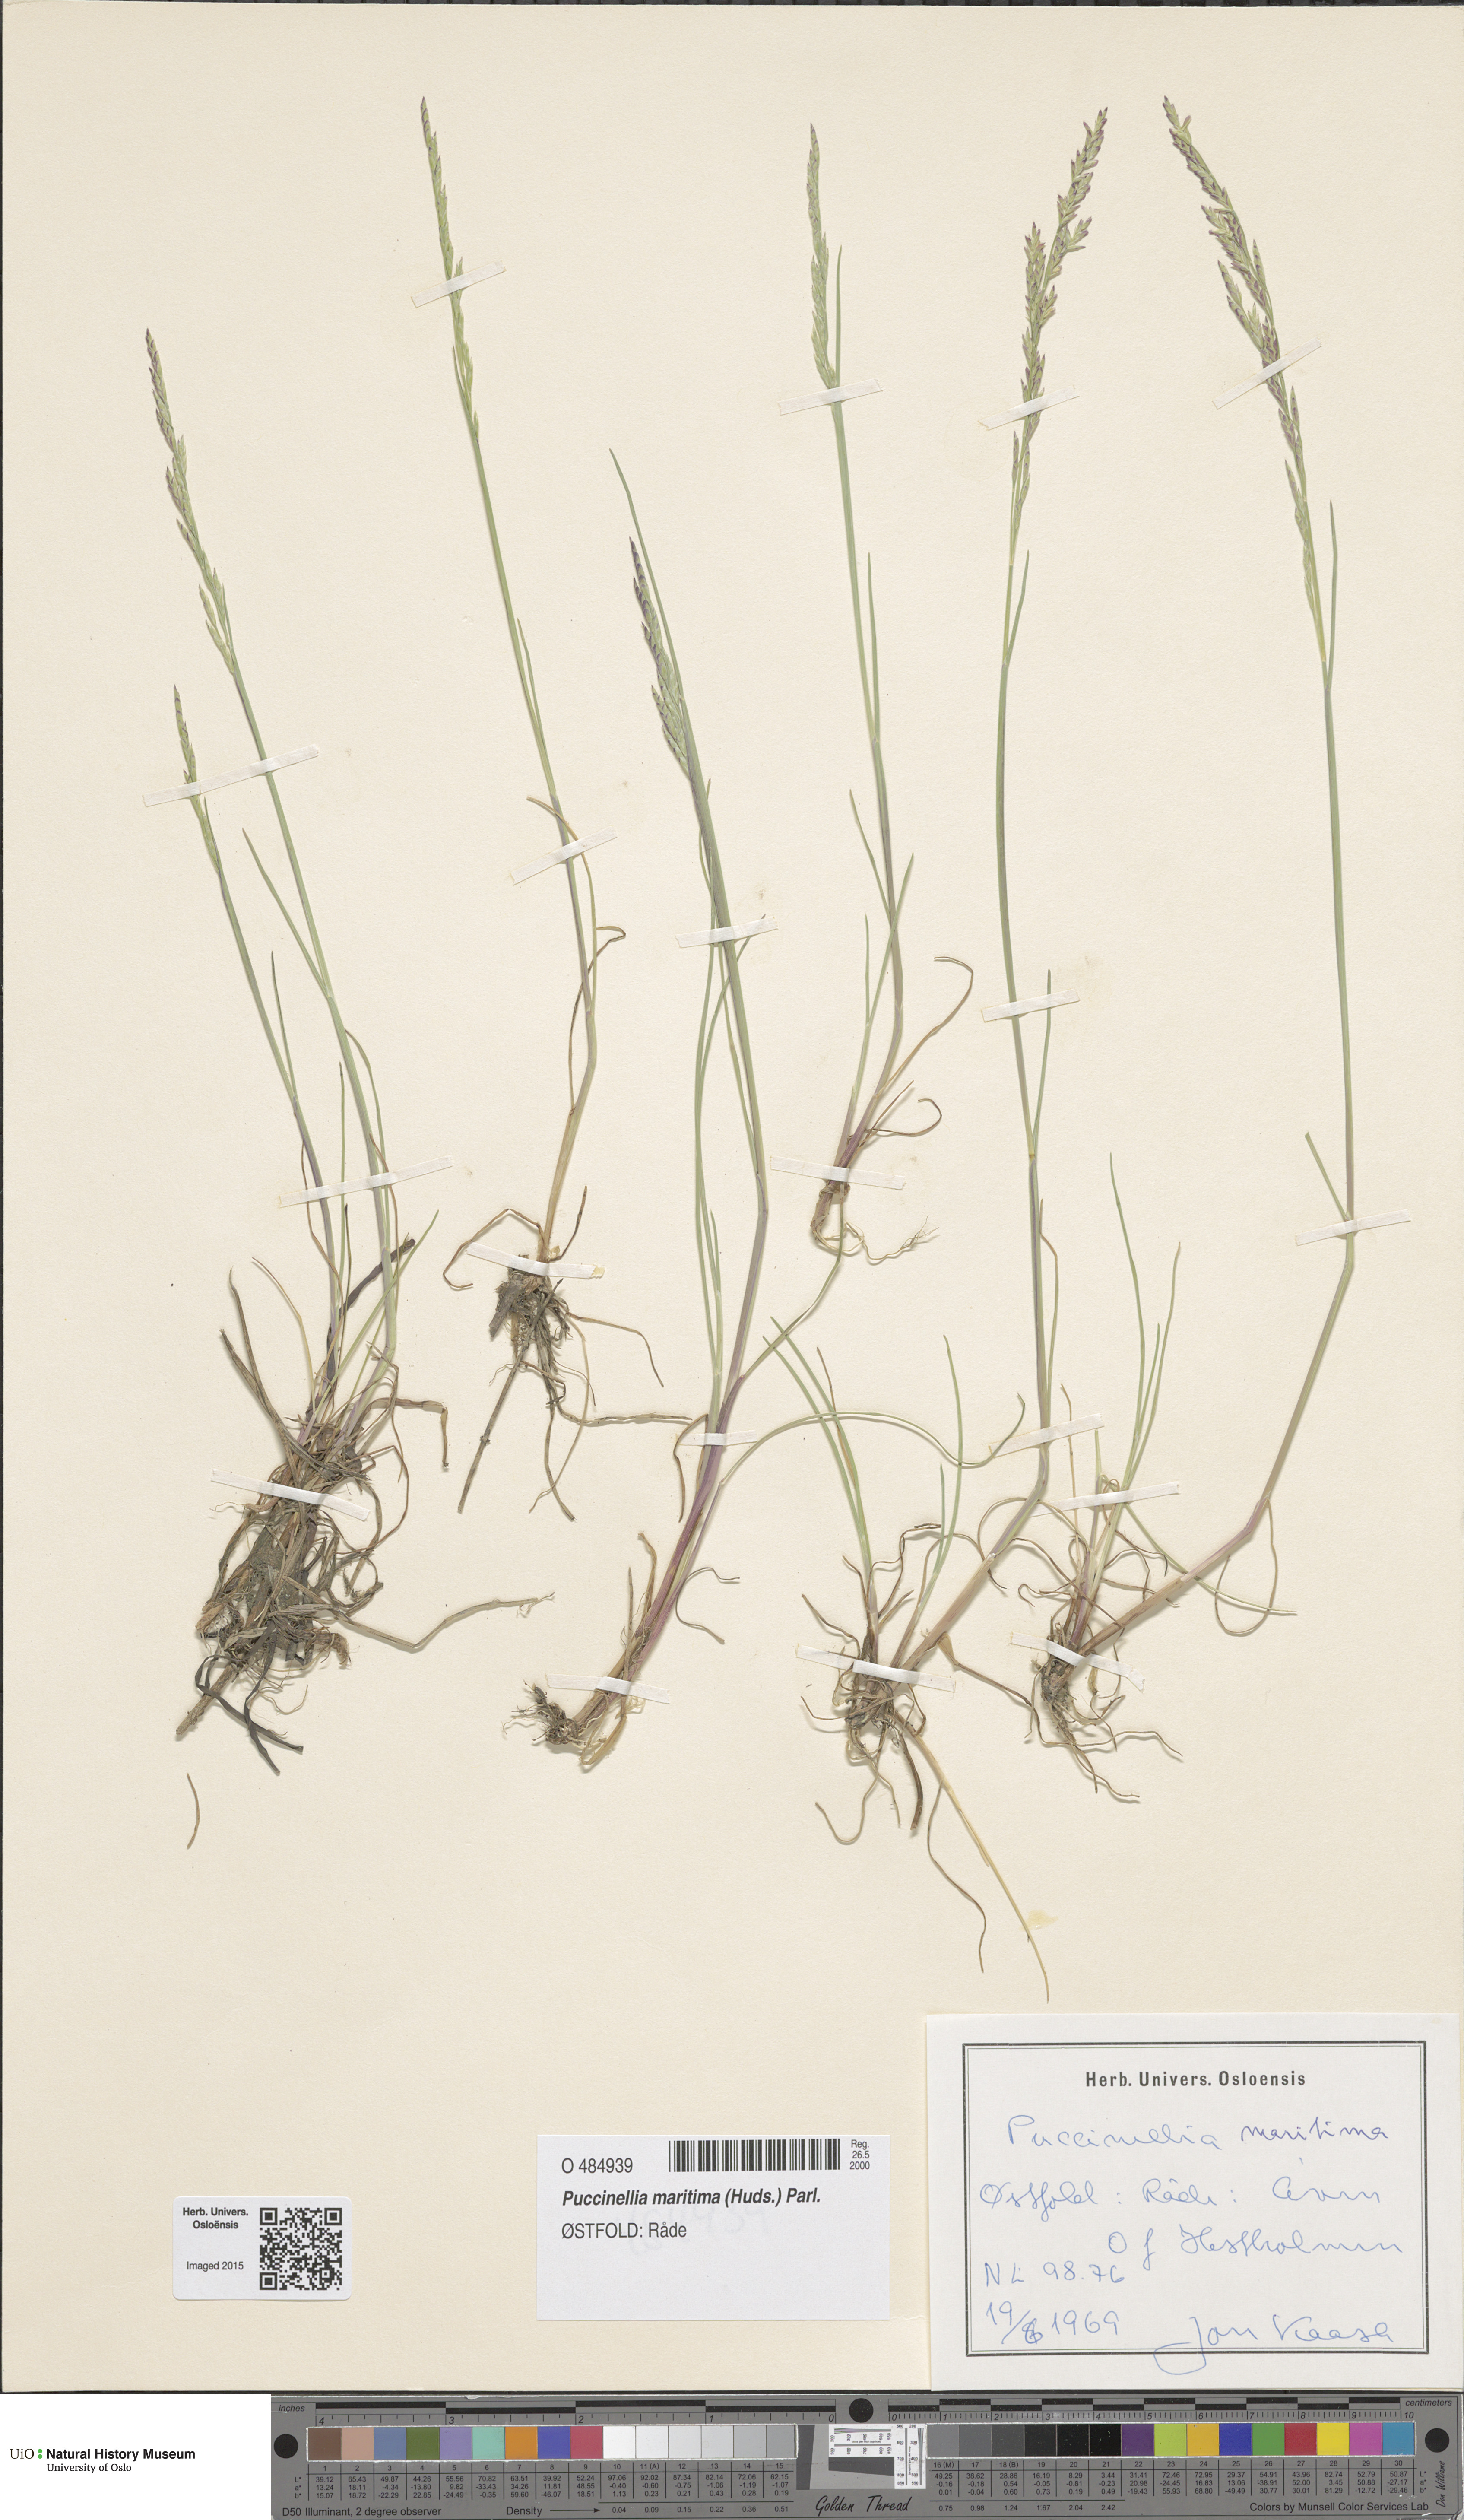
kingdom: Plantae
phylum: Tracheophyta
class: Liliopsida
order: Poales
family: Poaceae
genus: Puccinellia
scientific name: Puccinellia maritima
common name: Common saltmarsh grass
